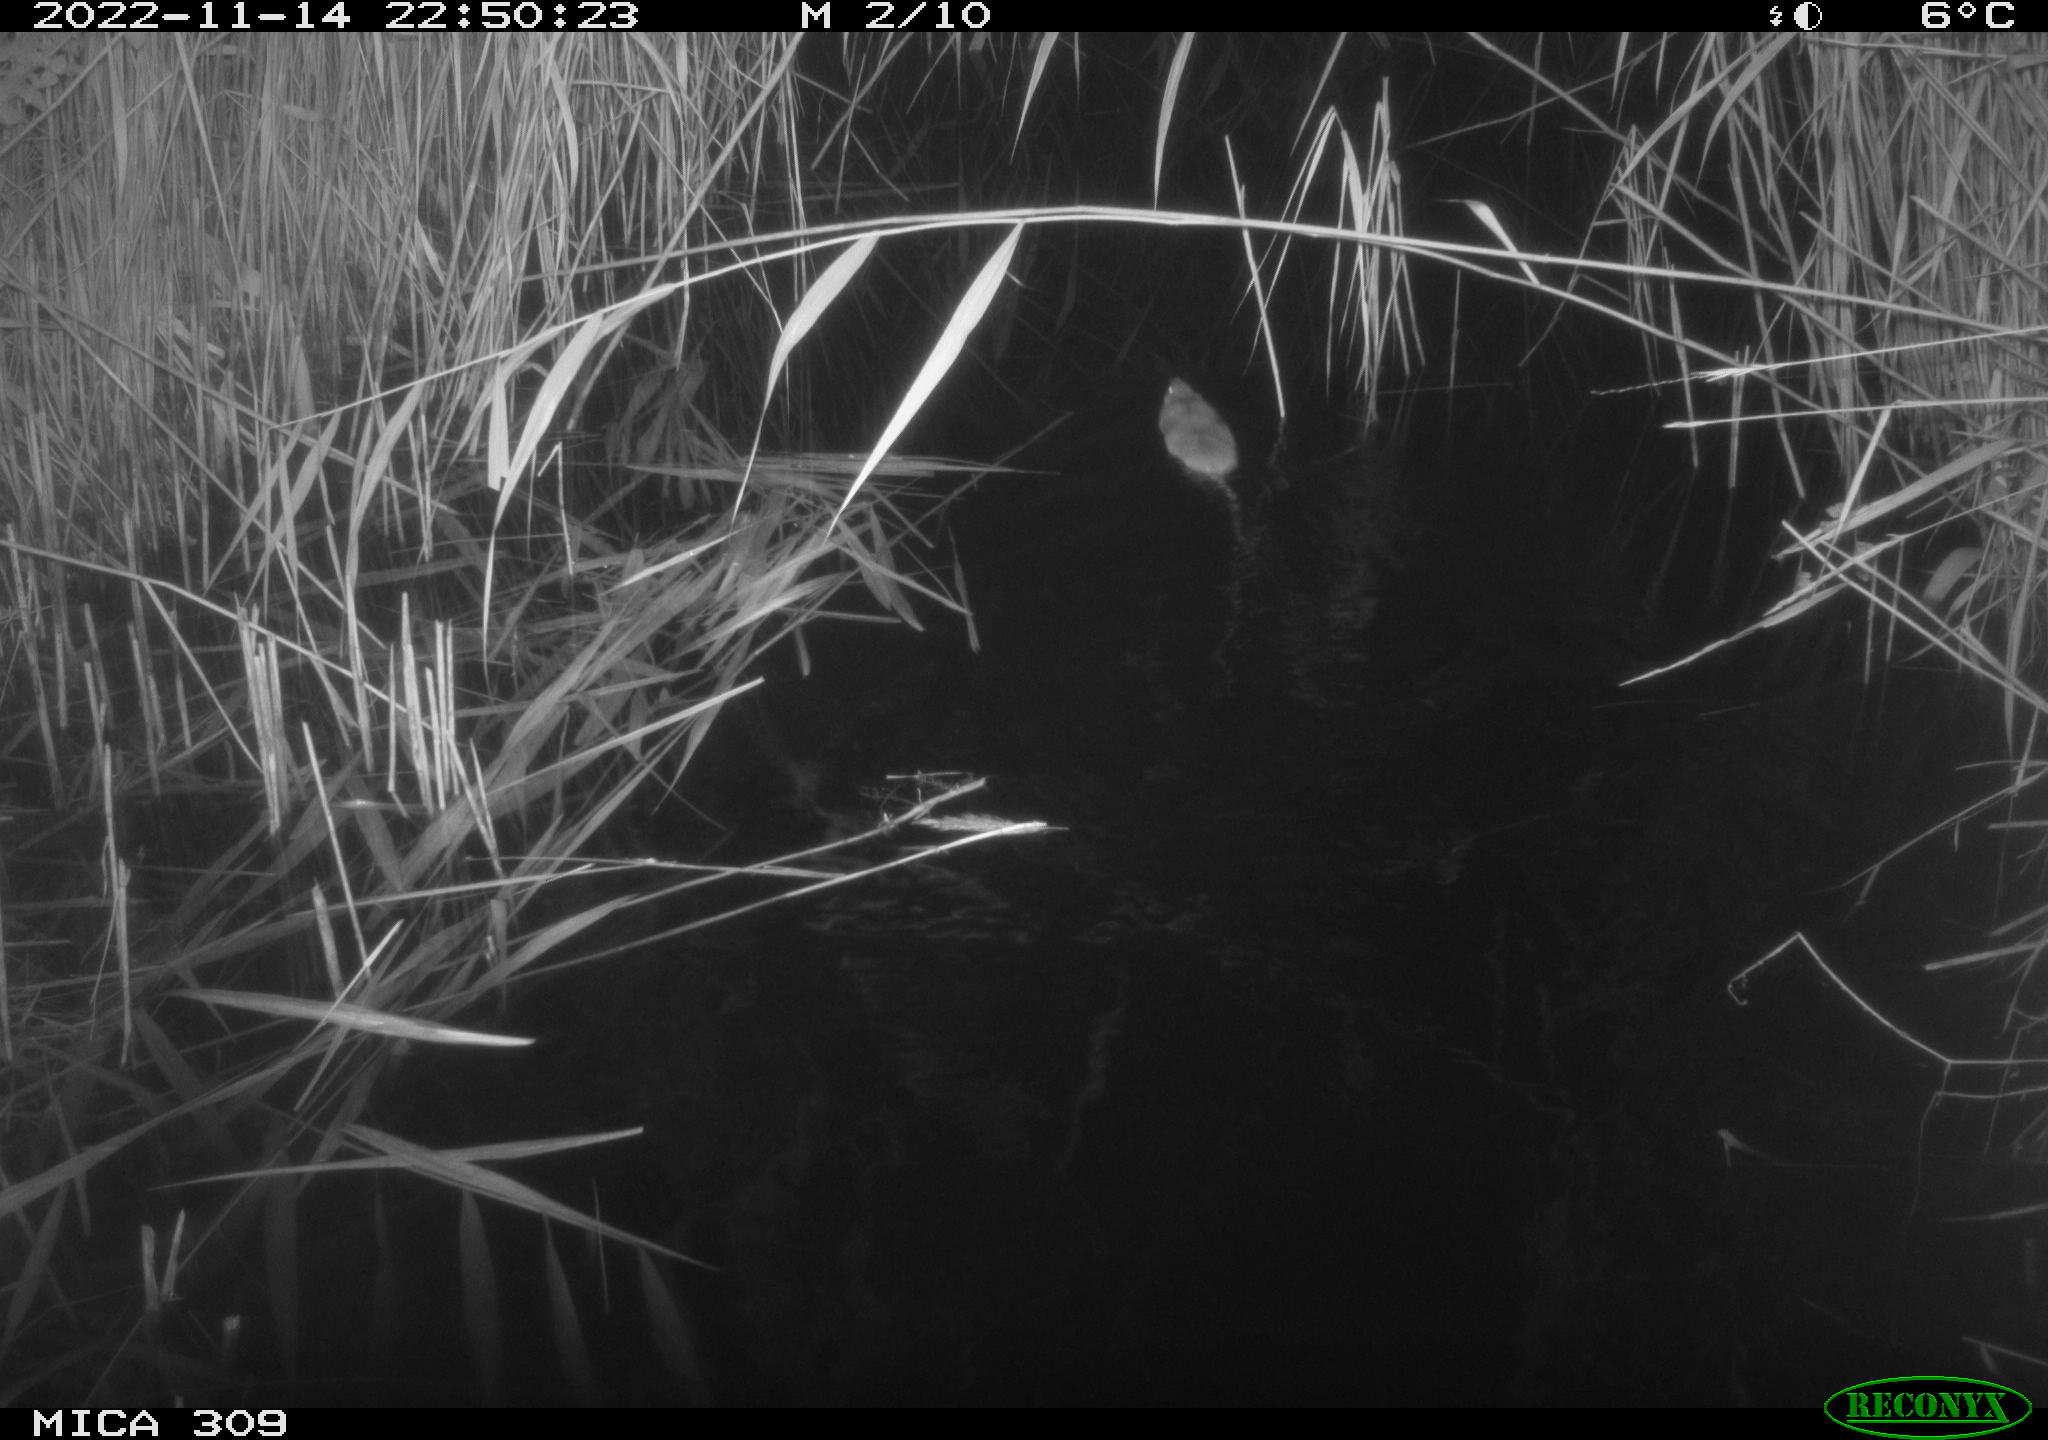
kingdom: Animalia
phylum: Chordata
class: Mammalia
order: Rodentia
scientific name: Rodentia
